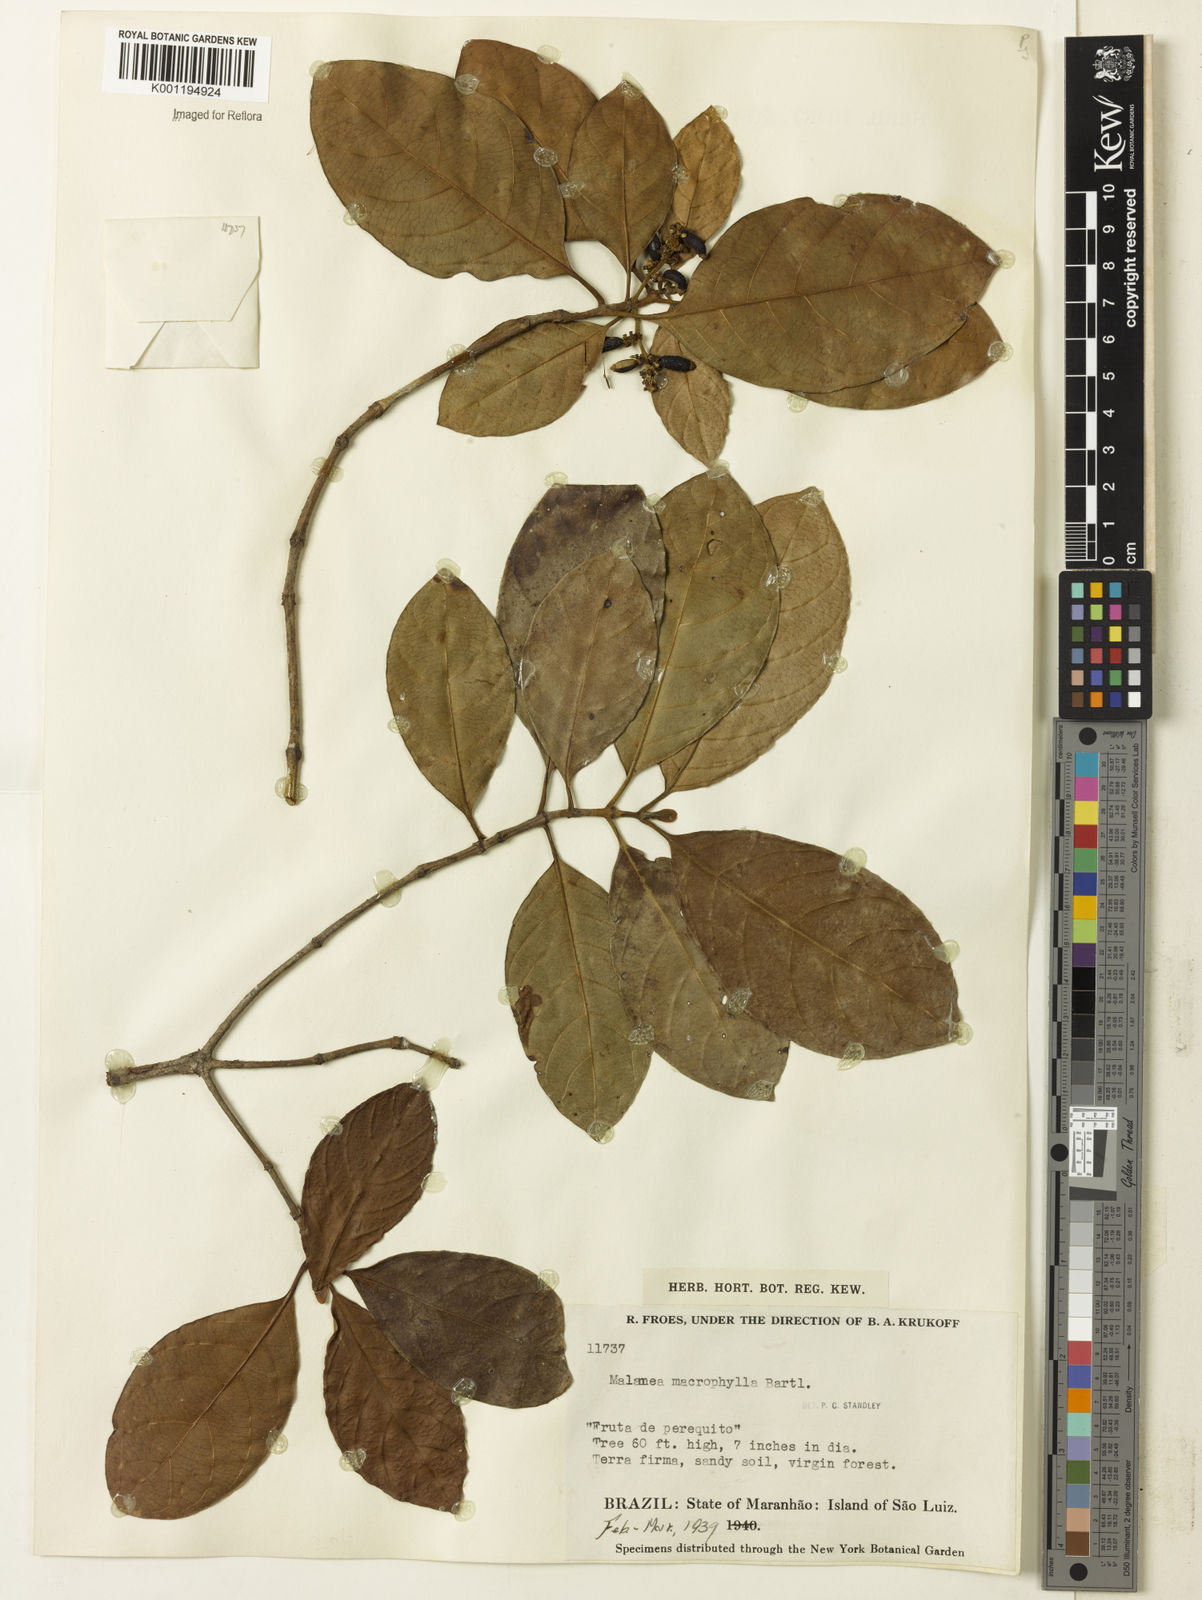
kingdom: Plantae
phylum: Tracheophyta
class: Magnoliopsida
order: Gentianales
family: Rubiaceae
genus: Malanea
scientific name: Malanea glabra
